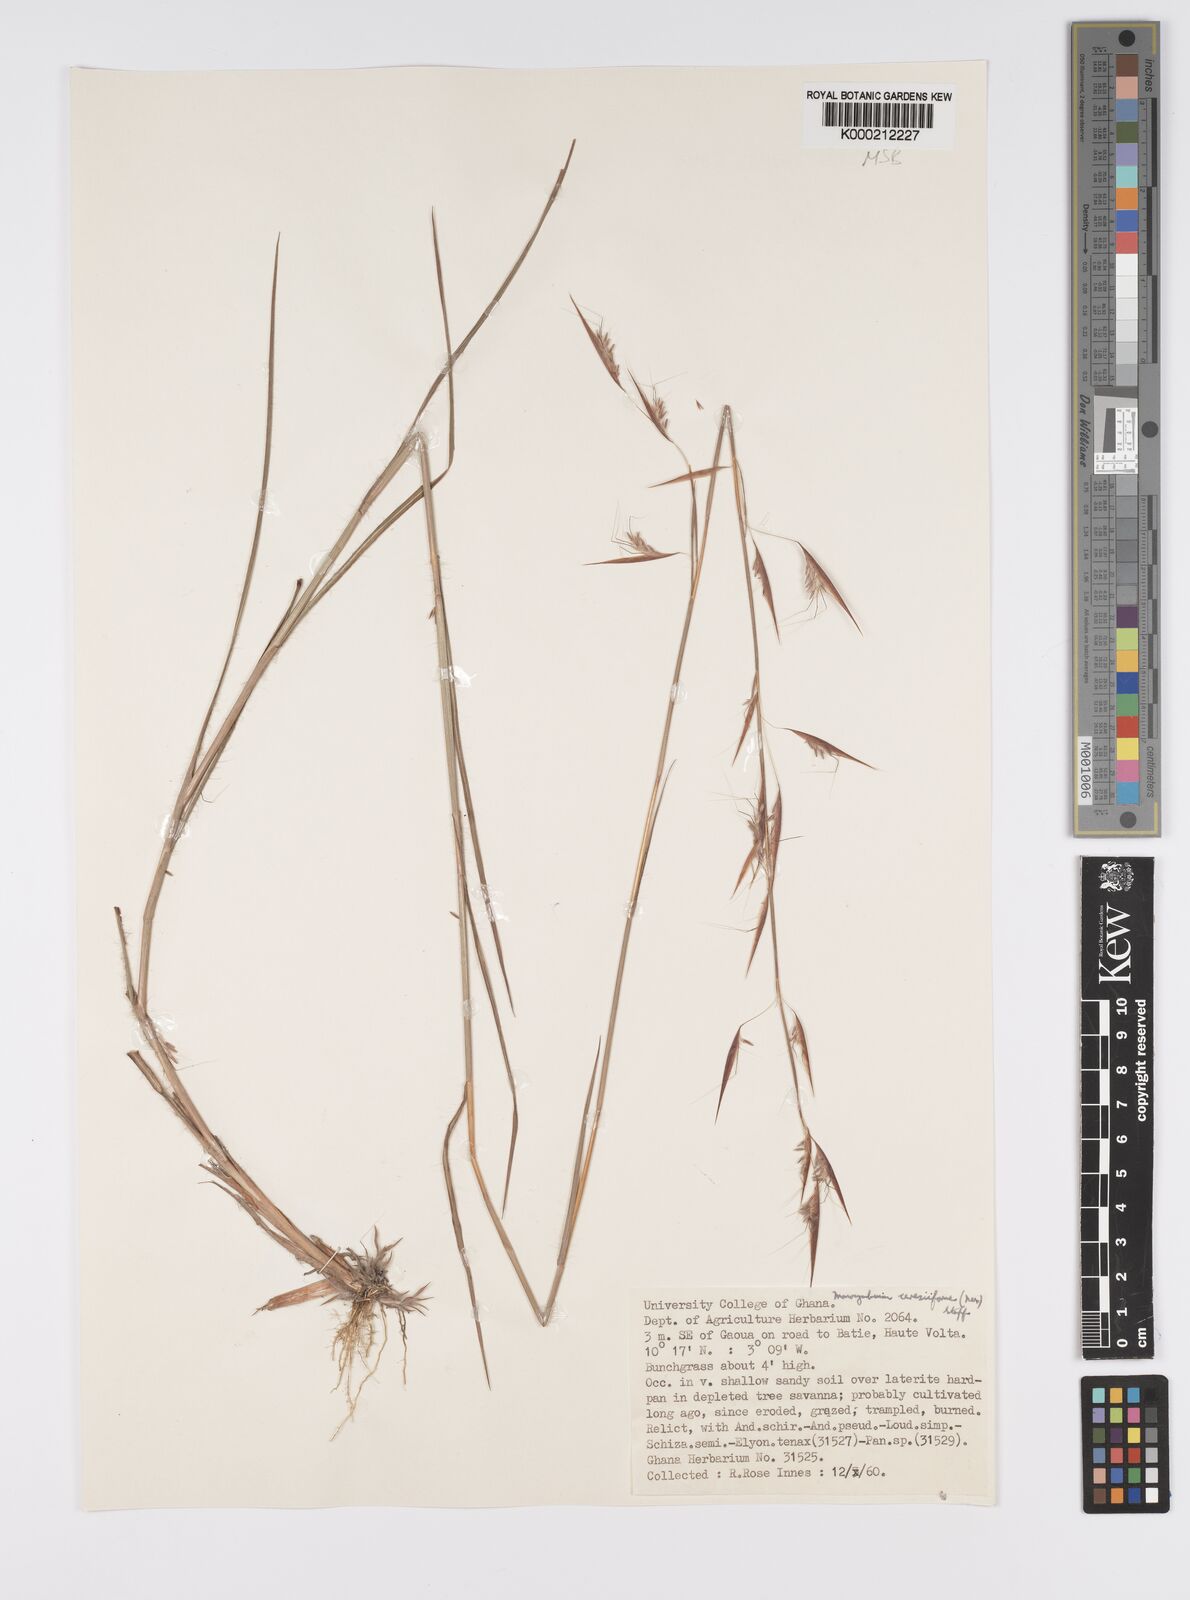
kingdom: Plantae
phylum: Tracheophyta
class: Liliopsida
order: Poales
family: Poaceae
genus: Monocymbium
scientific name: Monocymbium ceresiiforme
